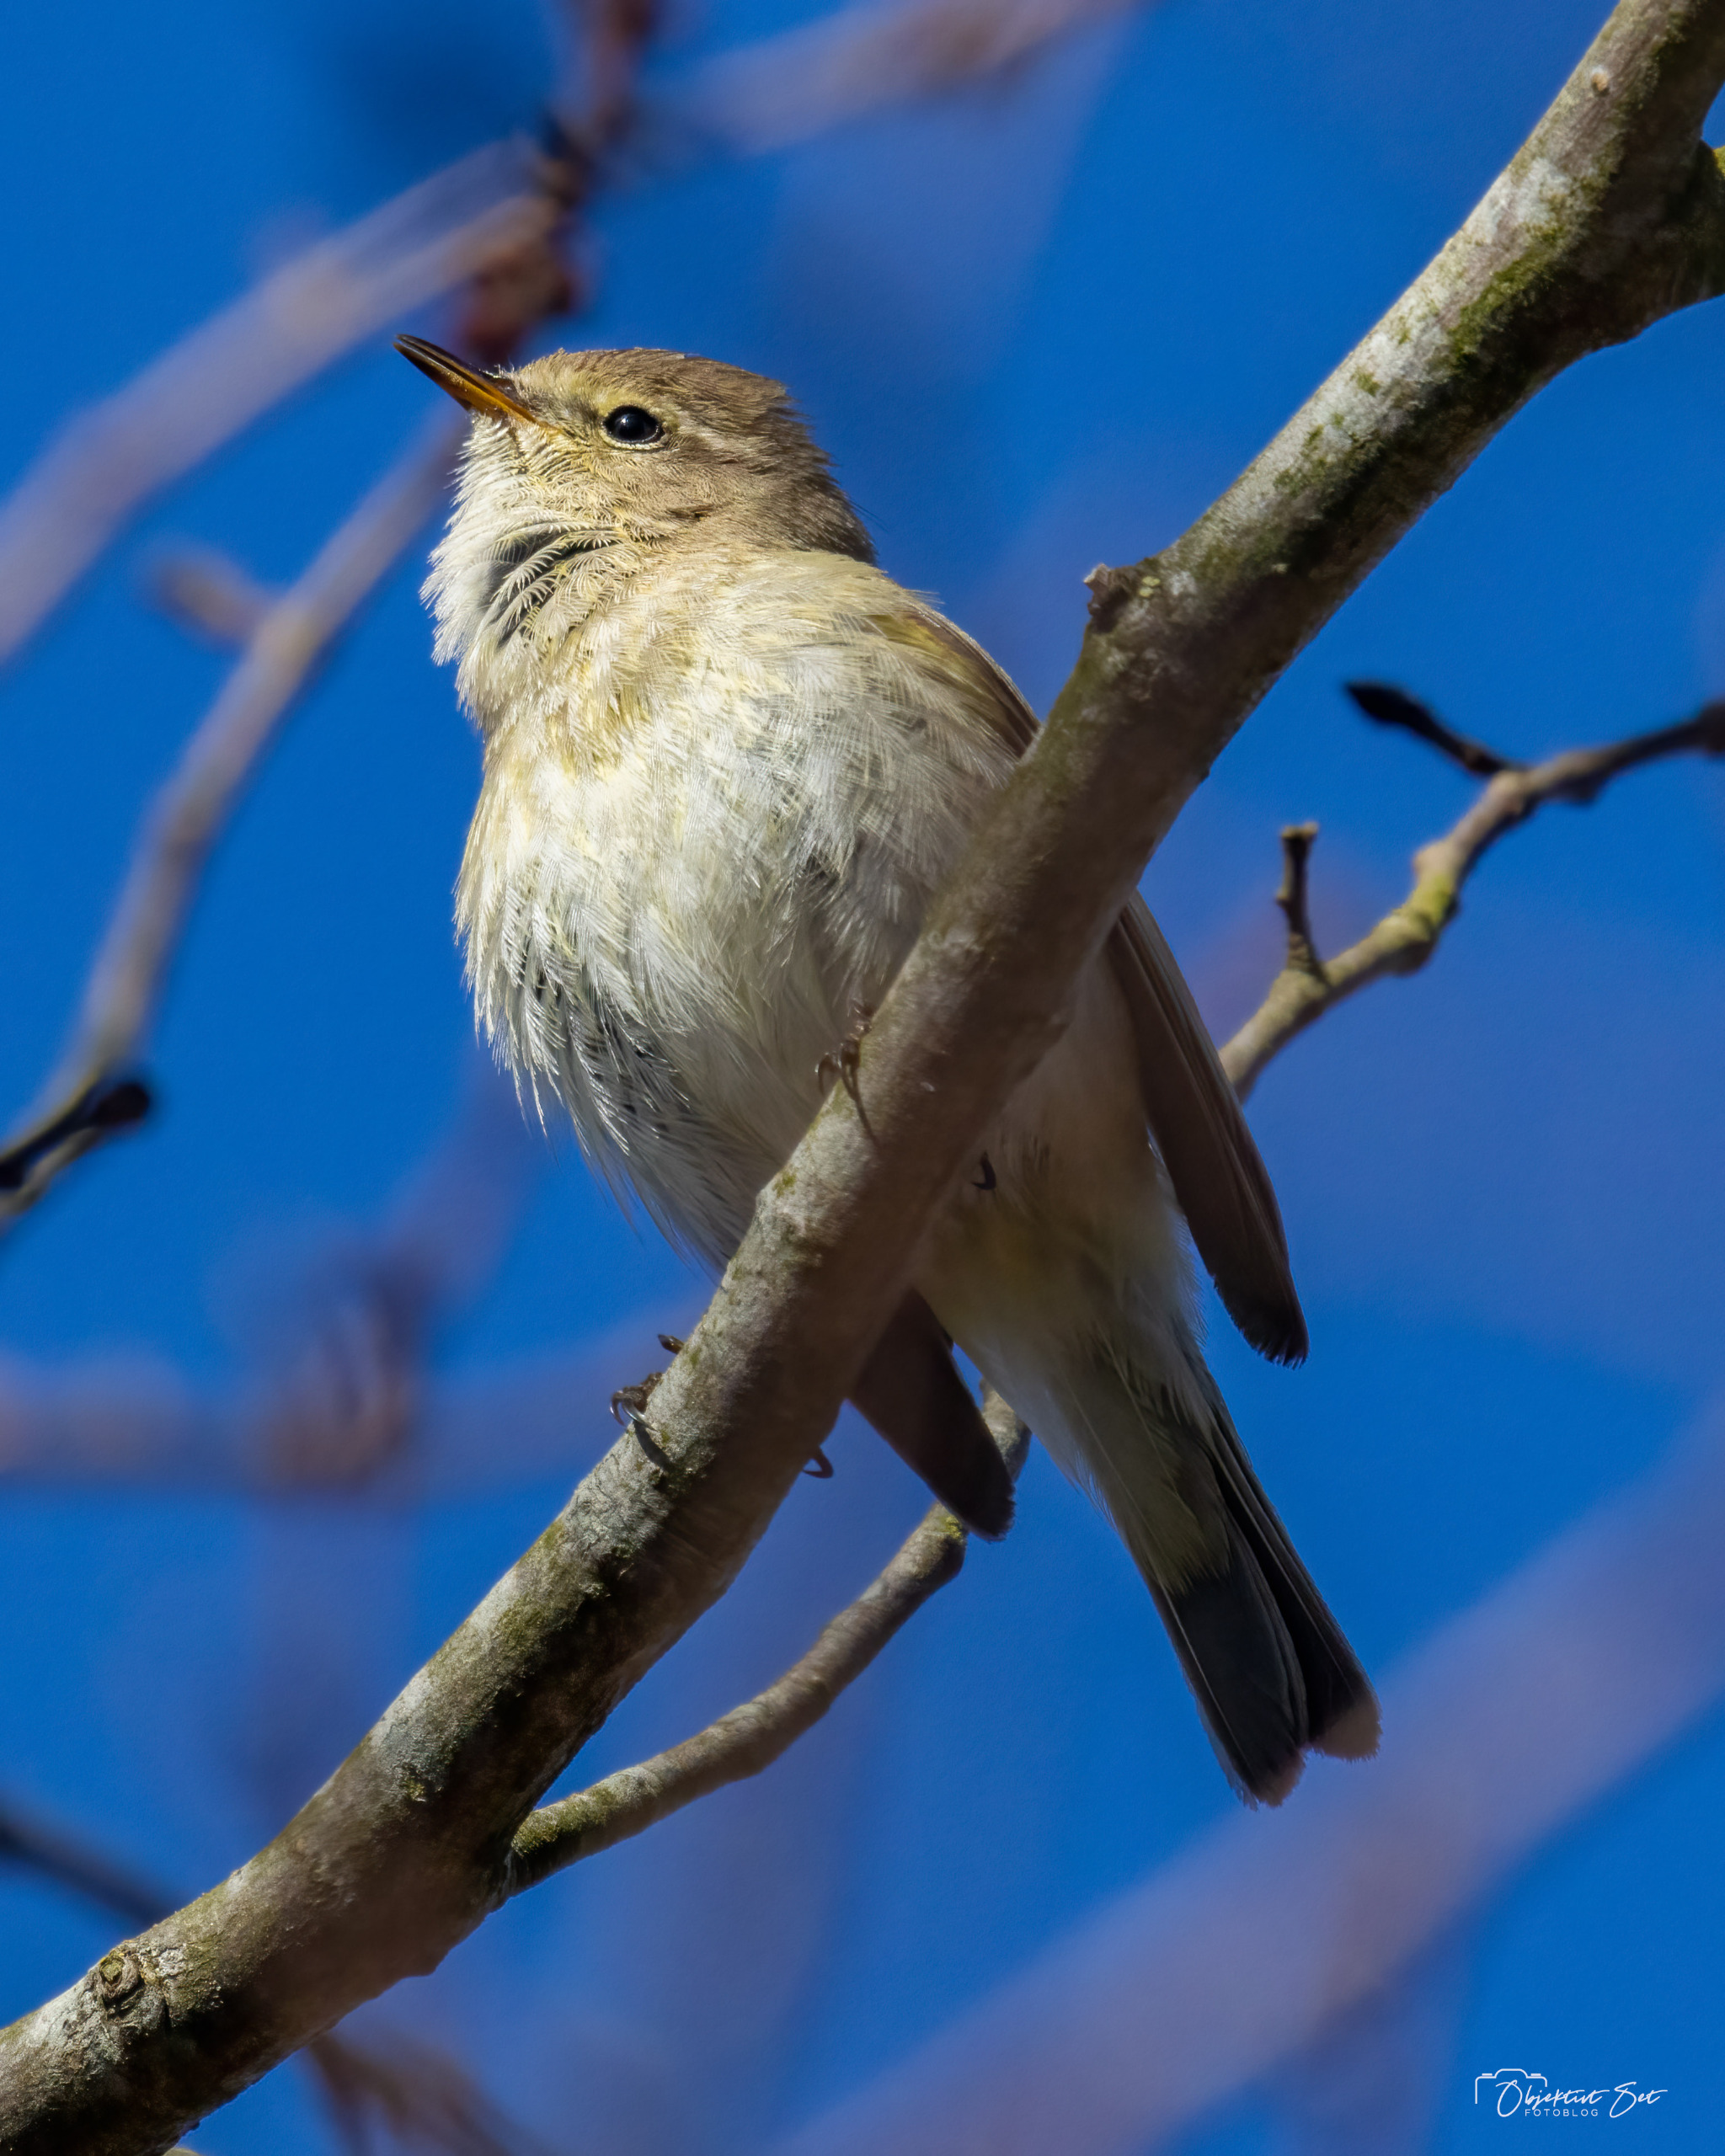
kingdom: Animalia
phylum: Chordata
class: Aves
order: Passeriformes
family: Phylloscopidae
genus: Phylloscopus
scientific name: Phylloscopus collybita
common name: Gransanger
